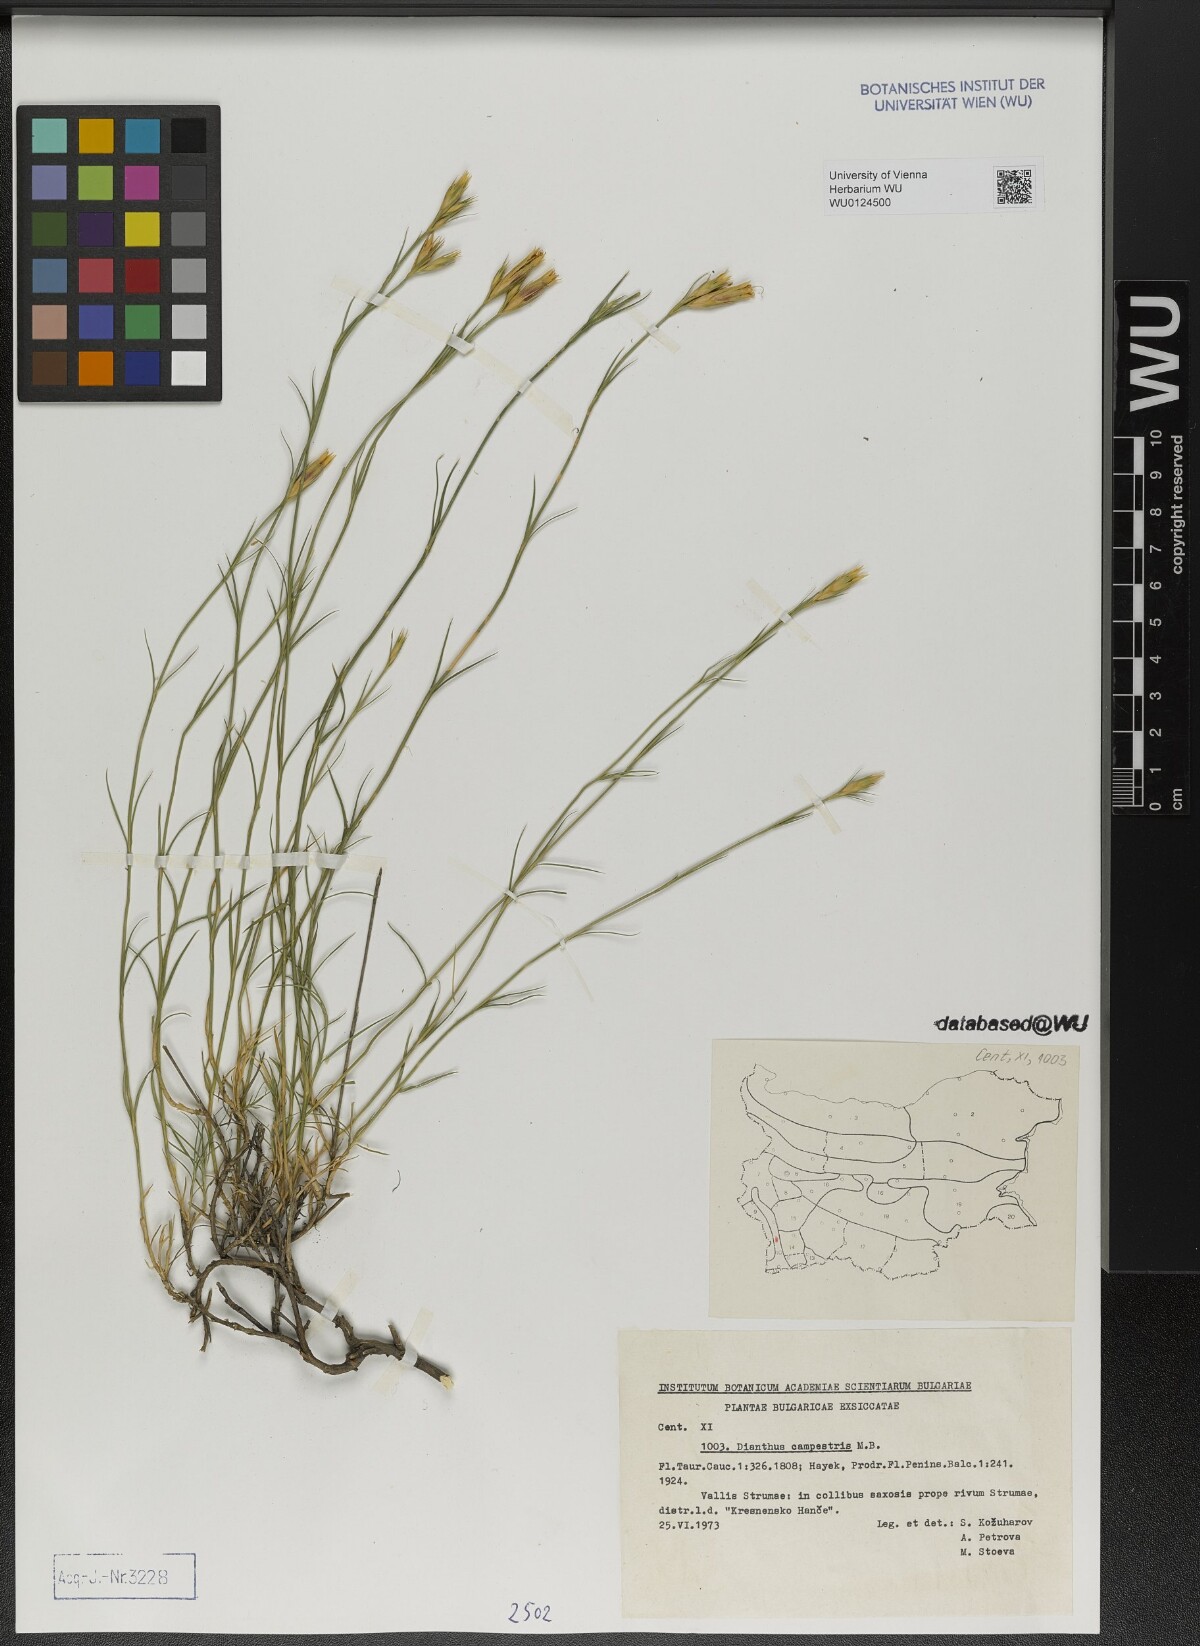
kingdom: Plantae
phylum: Tracheophyta
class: Magnoliopsida
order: Caryophyllales
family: Caryophyllaceae
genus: Dianthus
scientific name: Dianthus campestris
